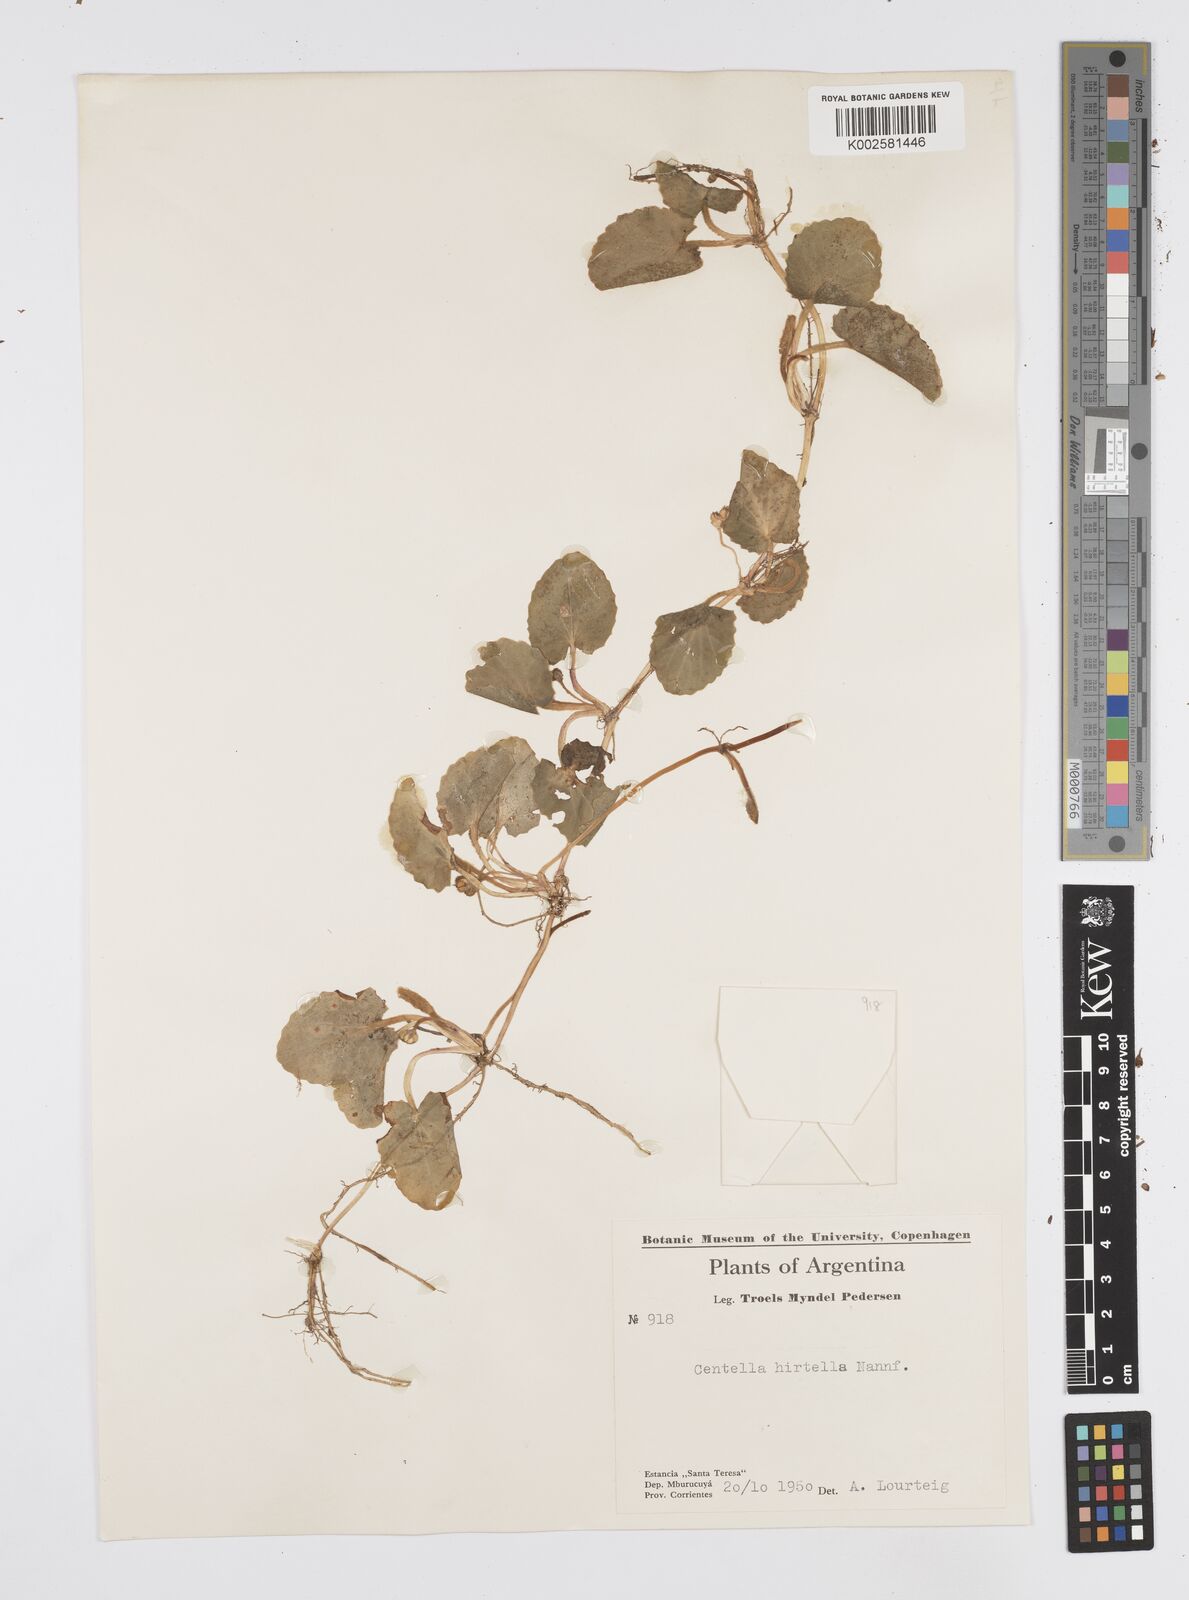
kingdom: Plantae
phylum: Tracheophyta
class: Magnoliopsida
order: Apiales
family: Apiaceae
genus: Centella
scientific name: Centella asiatica
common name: Spadeleaf
